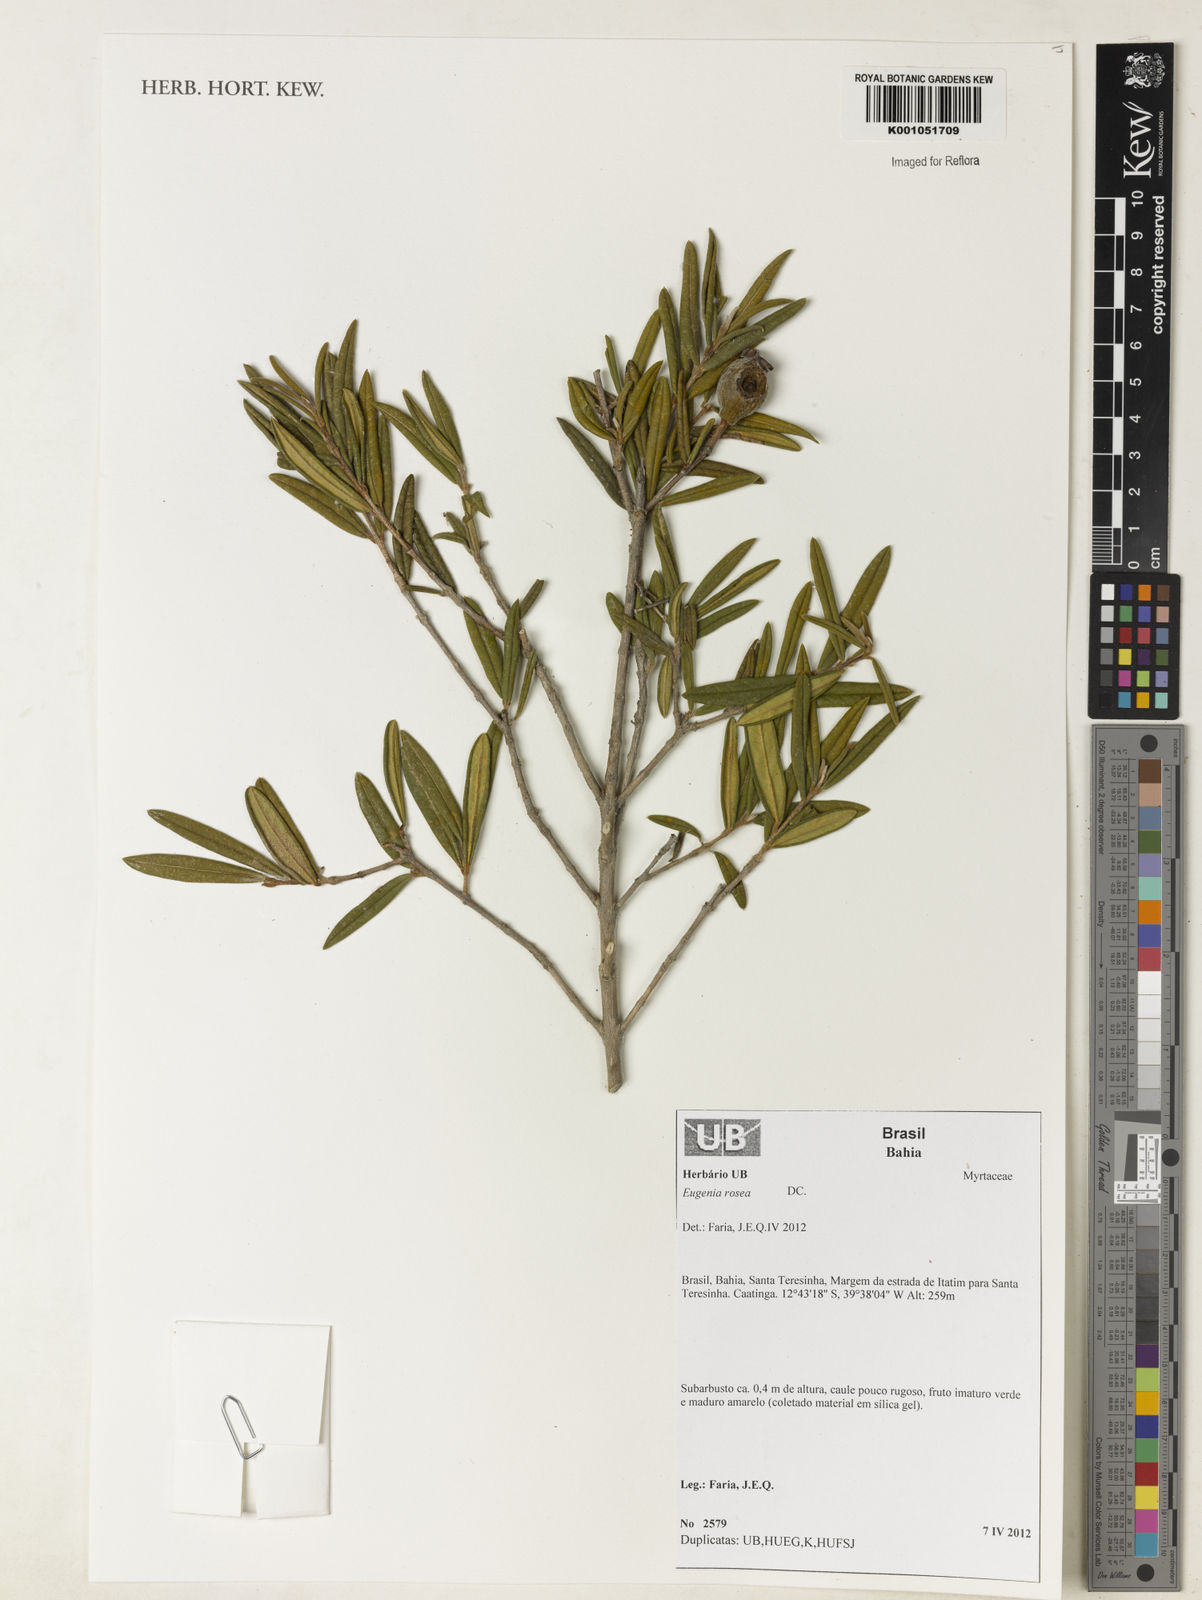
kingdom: Plantae
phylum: Tracheophyta
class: Magnoliopsida
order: Myrtales
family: Myrtaceae
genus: Eugenia
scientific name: Eugenia rosea
